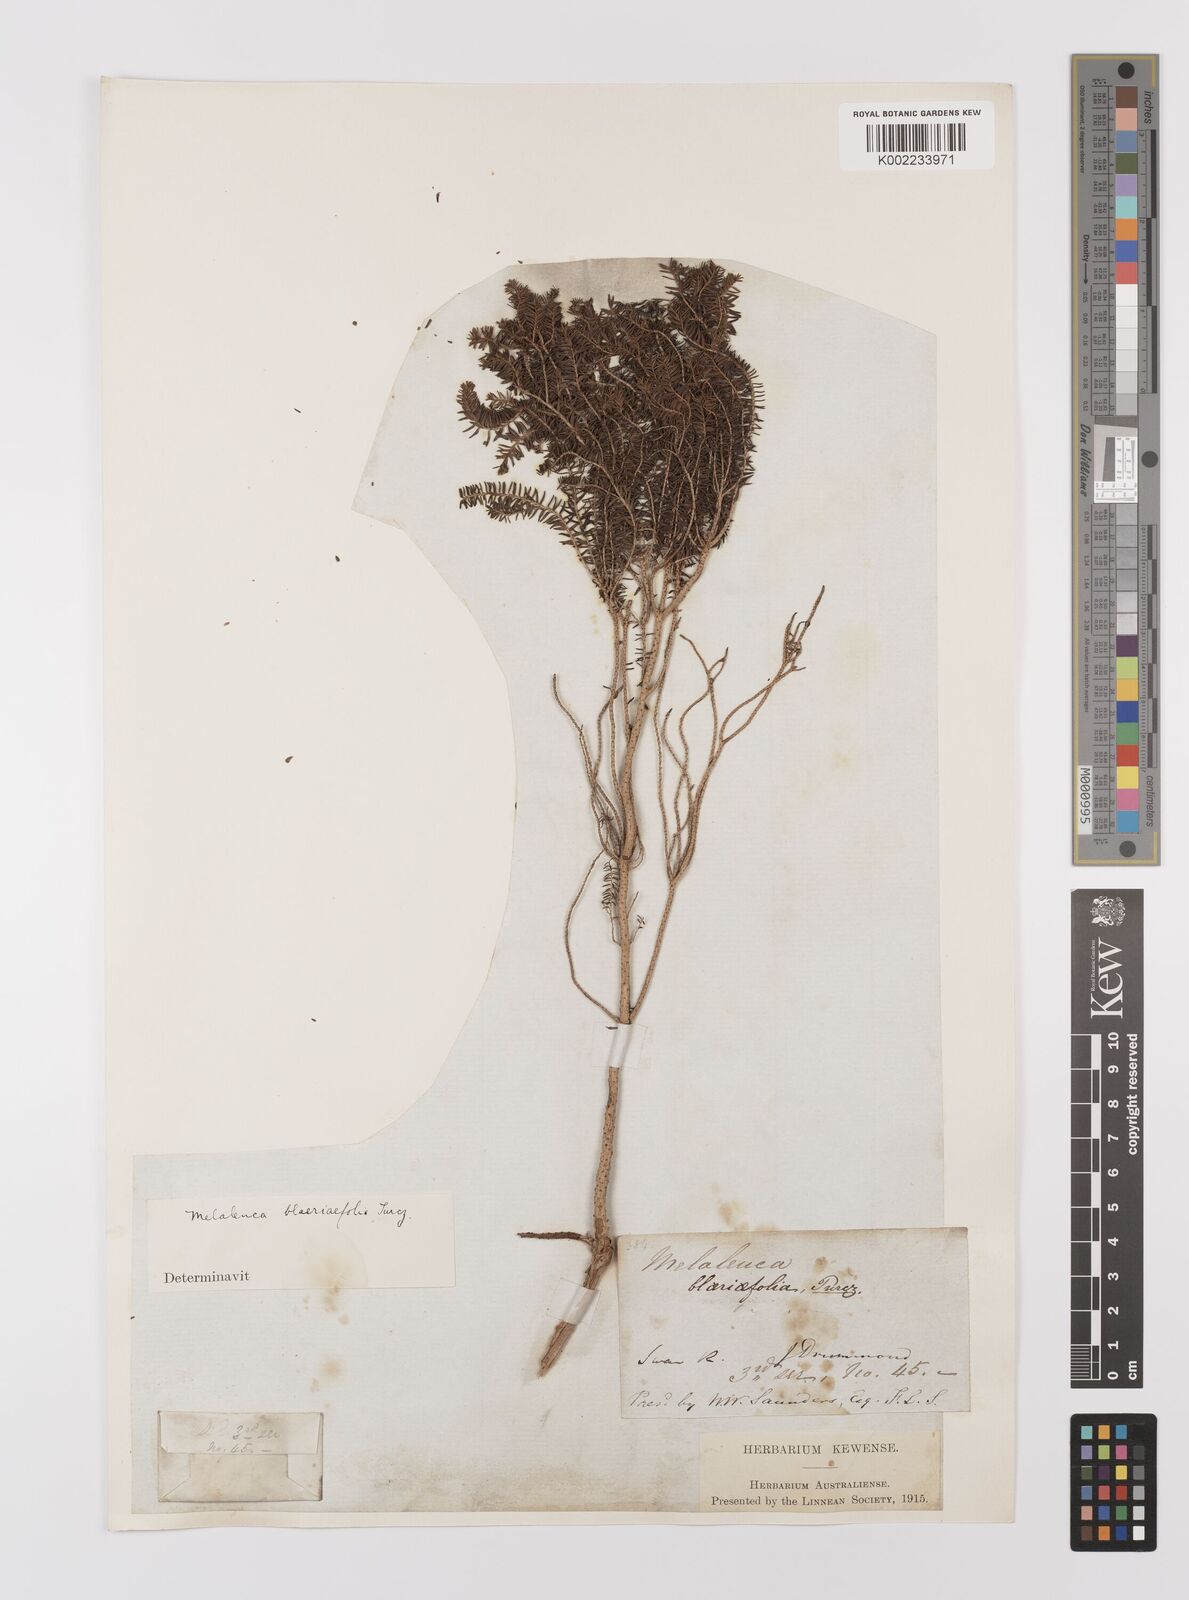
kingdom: Plantae
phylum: Tracheophyta
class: Magnoliopsida
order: Myrtales
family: Myrtaceae
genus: Melaleuca
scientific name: Melaleuca blaeriifolia
